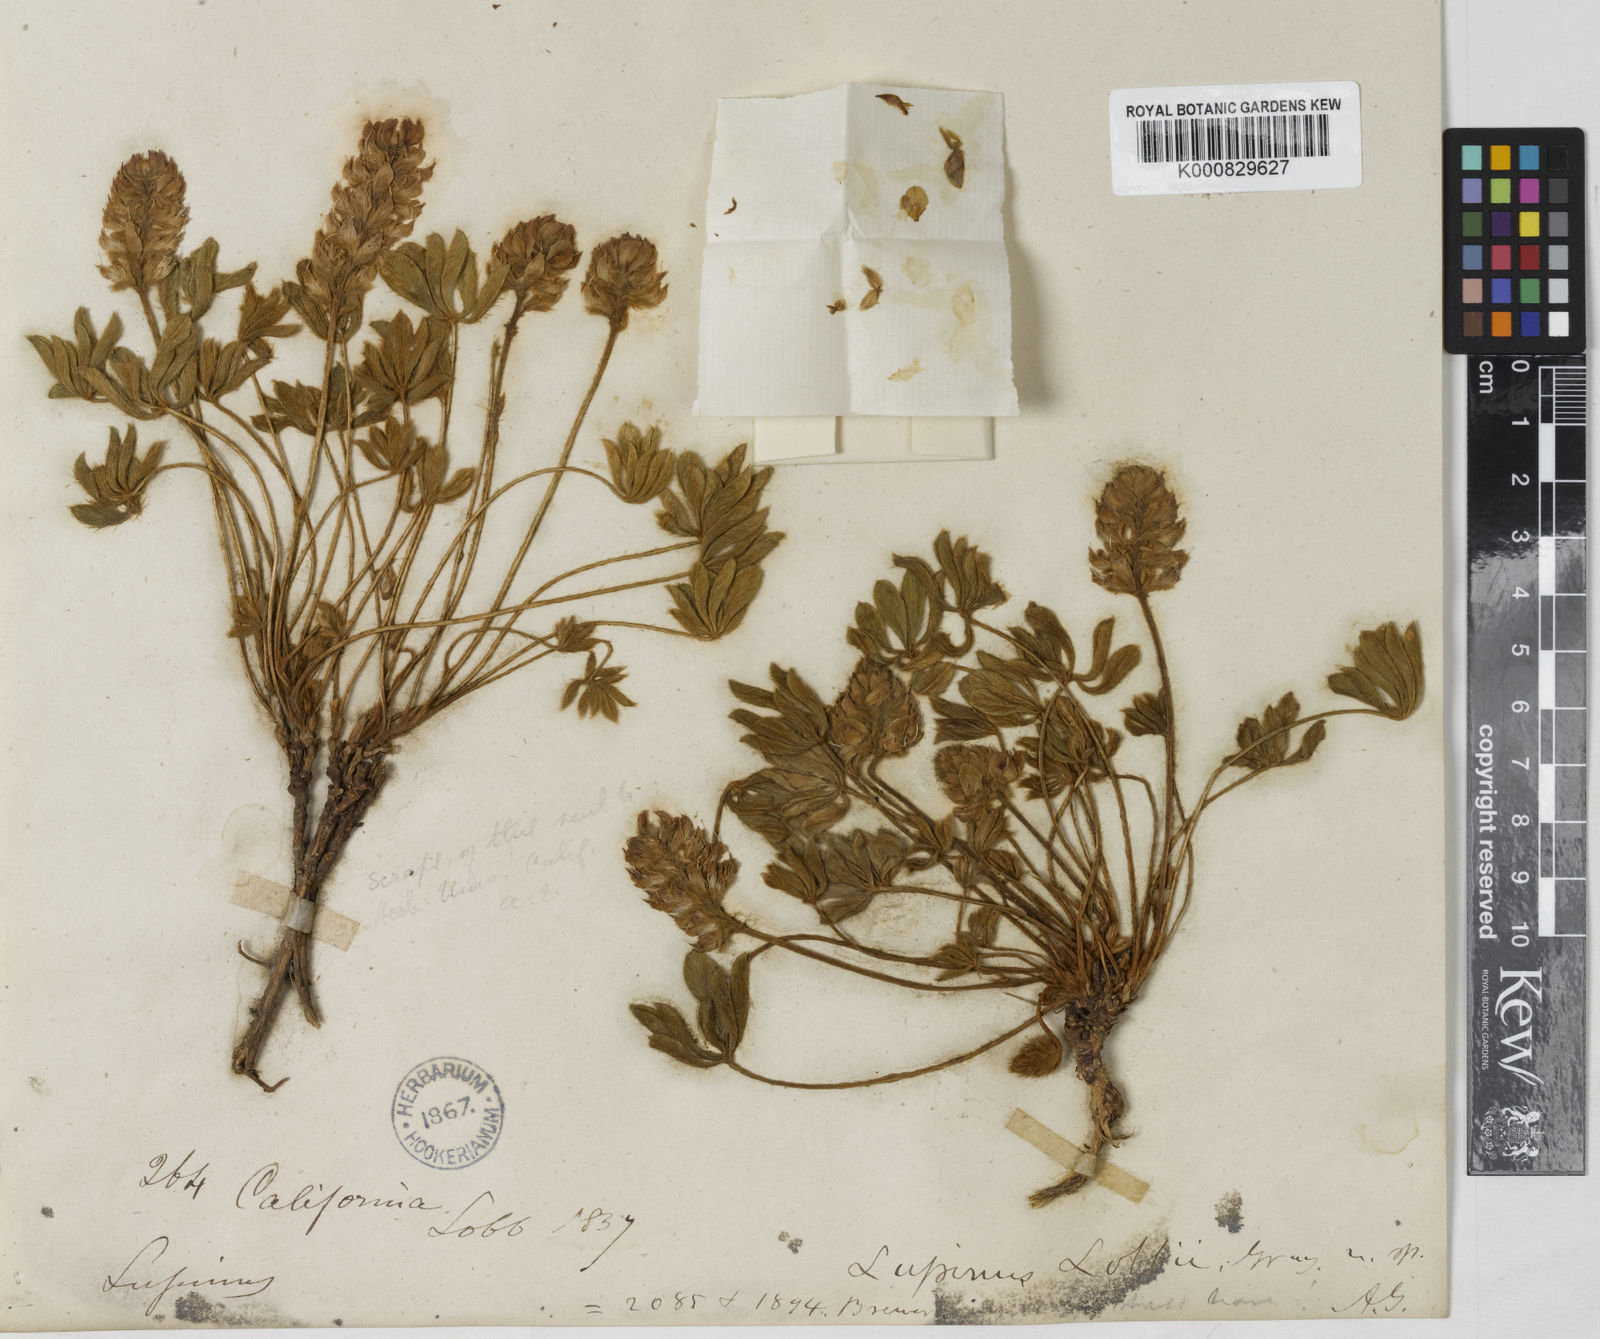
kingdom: Plantae
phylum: Tracheophyta
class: Magnoliopsida
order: Fabales
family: Fabaceae
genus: Lupinus
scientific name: Lupinus
